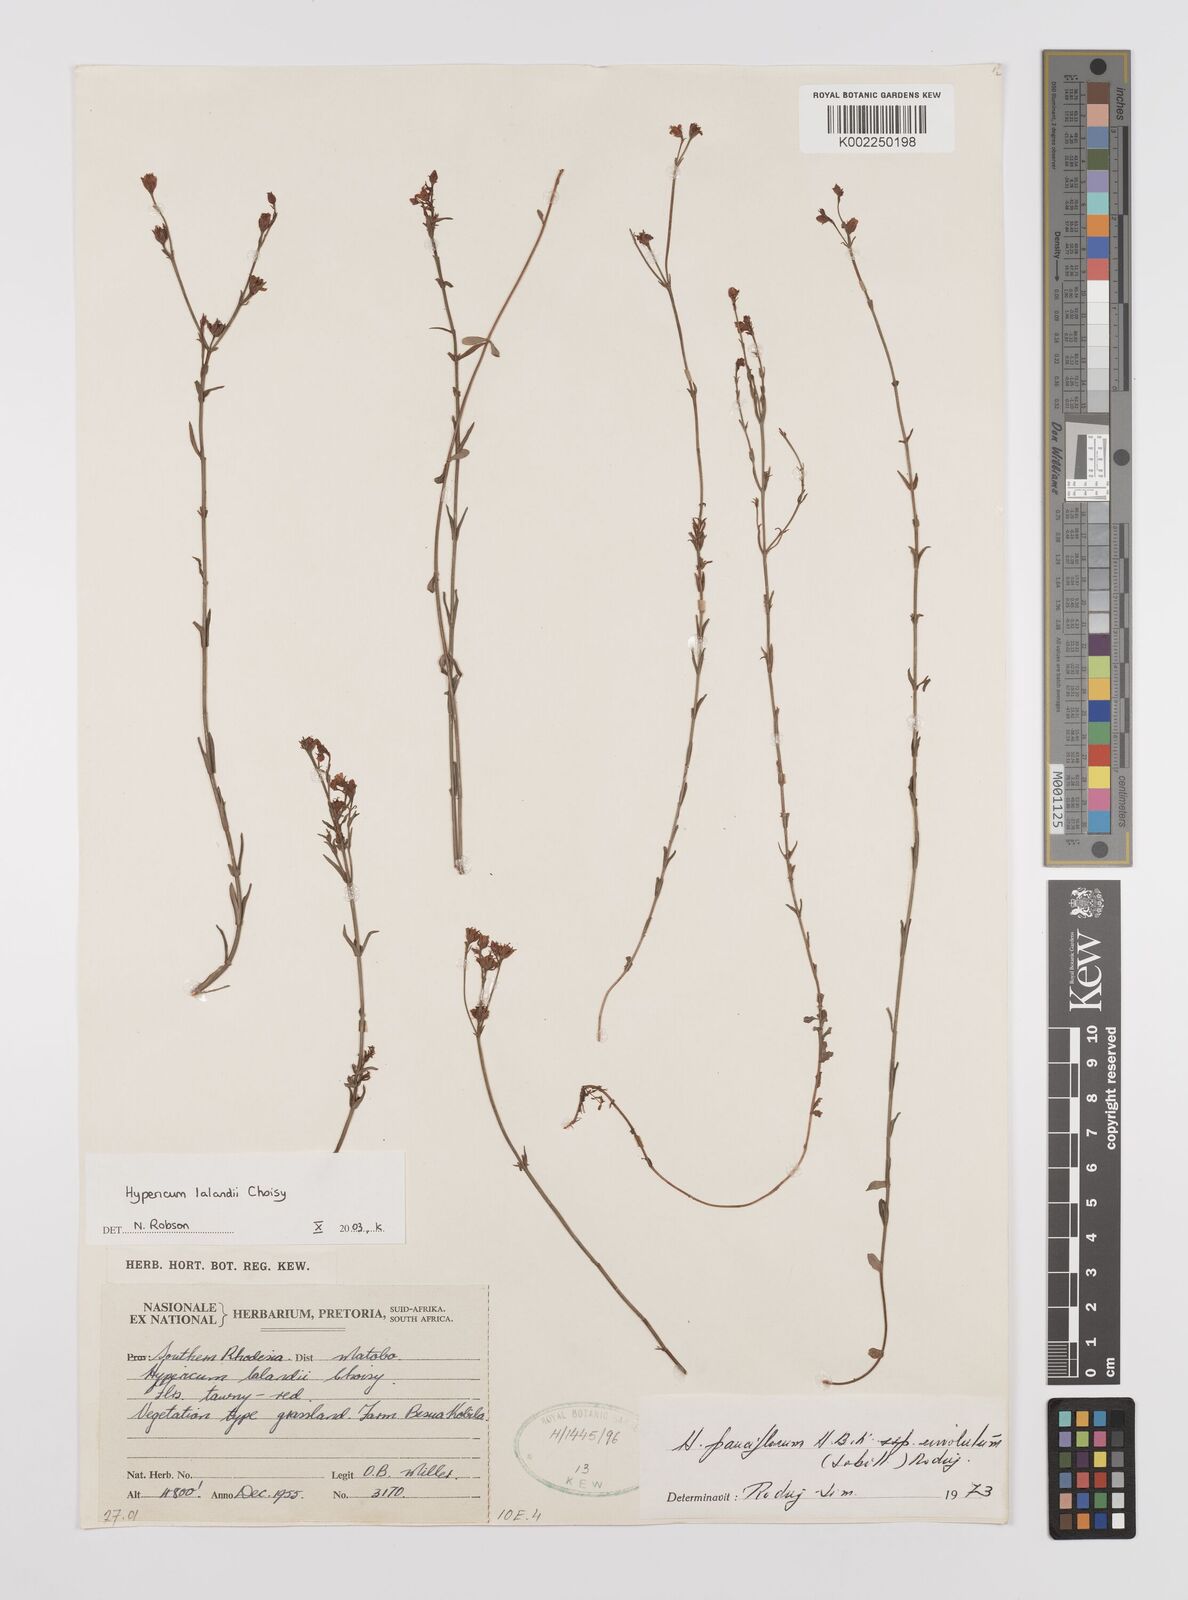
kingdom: Plantae
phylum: Tracheophyta
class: Magnoliopsida
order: Malpighiales
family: Hypericaceae
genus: Hypericum
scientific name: Hypericum lalandii
